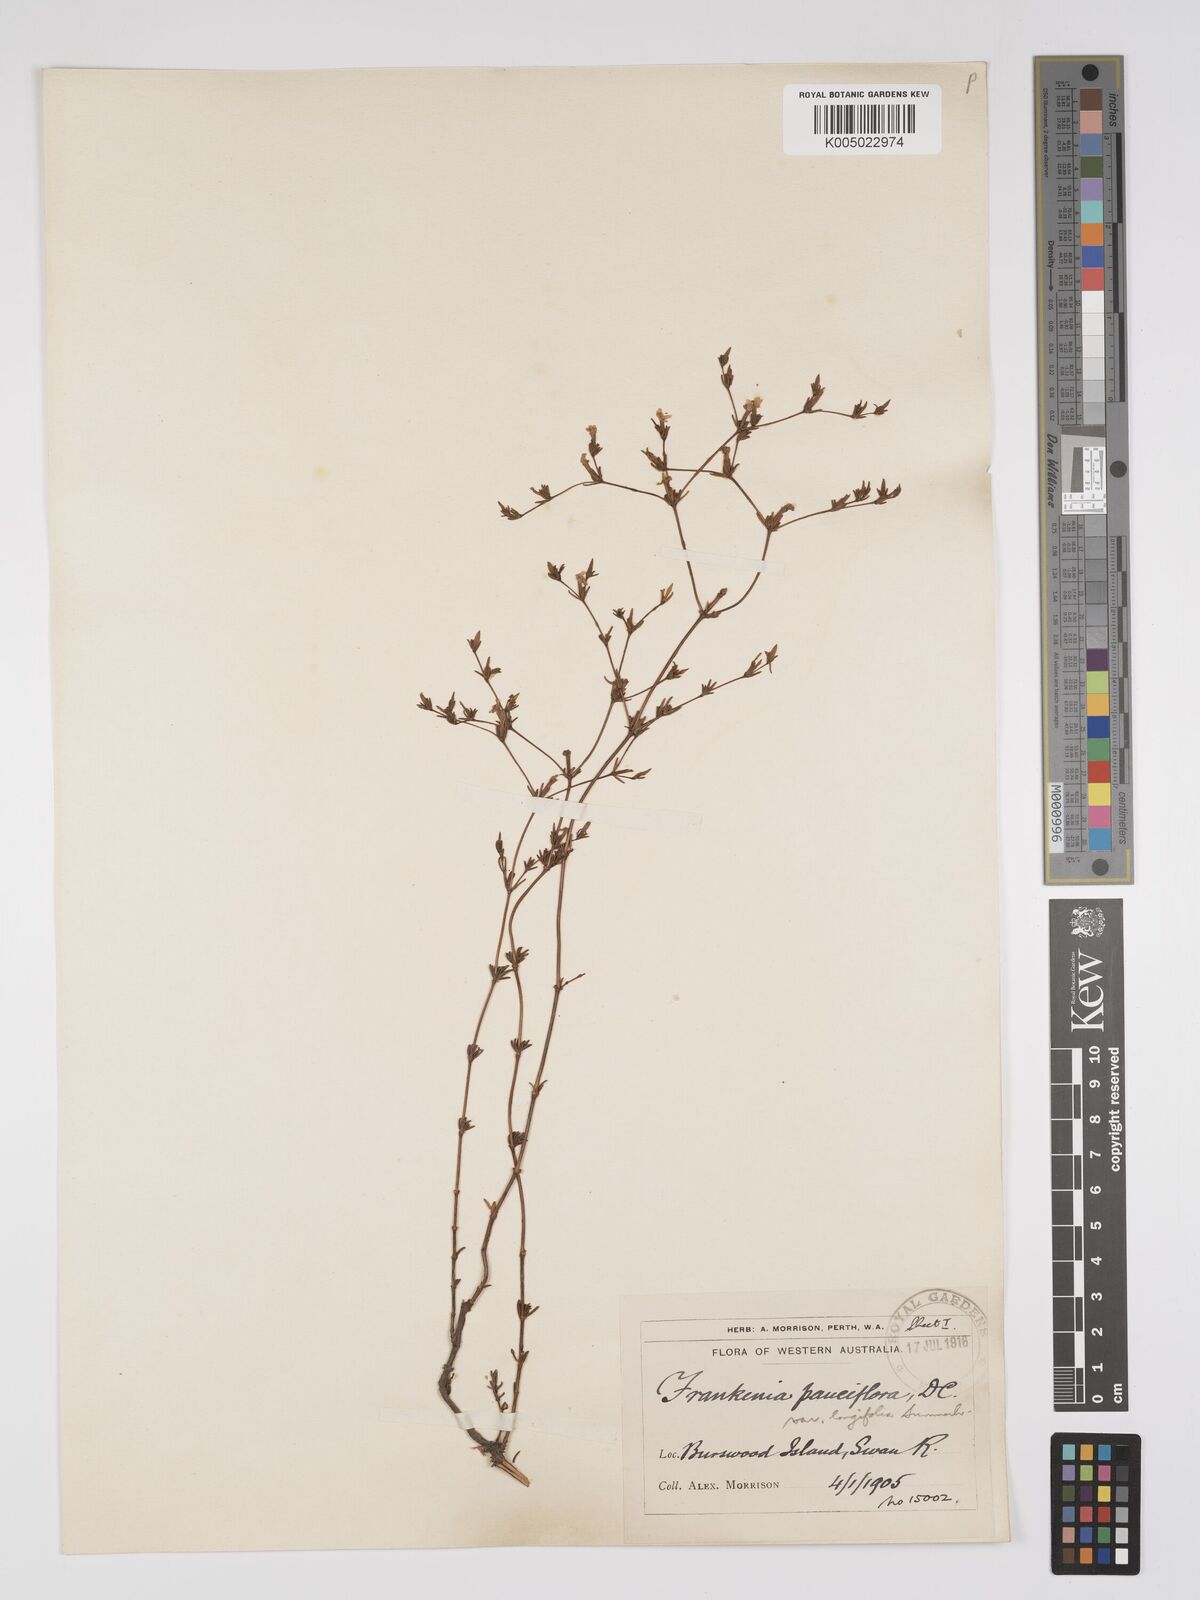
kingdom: Plantae
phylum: Tracheophyta
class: Magnoliopsida
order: Caryophyllales
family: Frankeniaceae
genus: Frankenia
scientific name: Frankenia pauciflora
